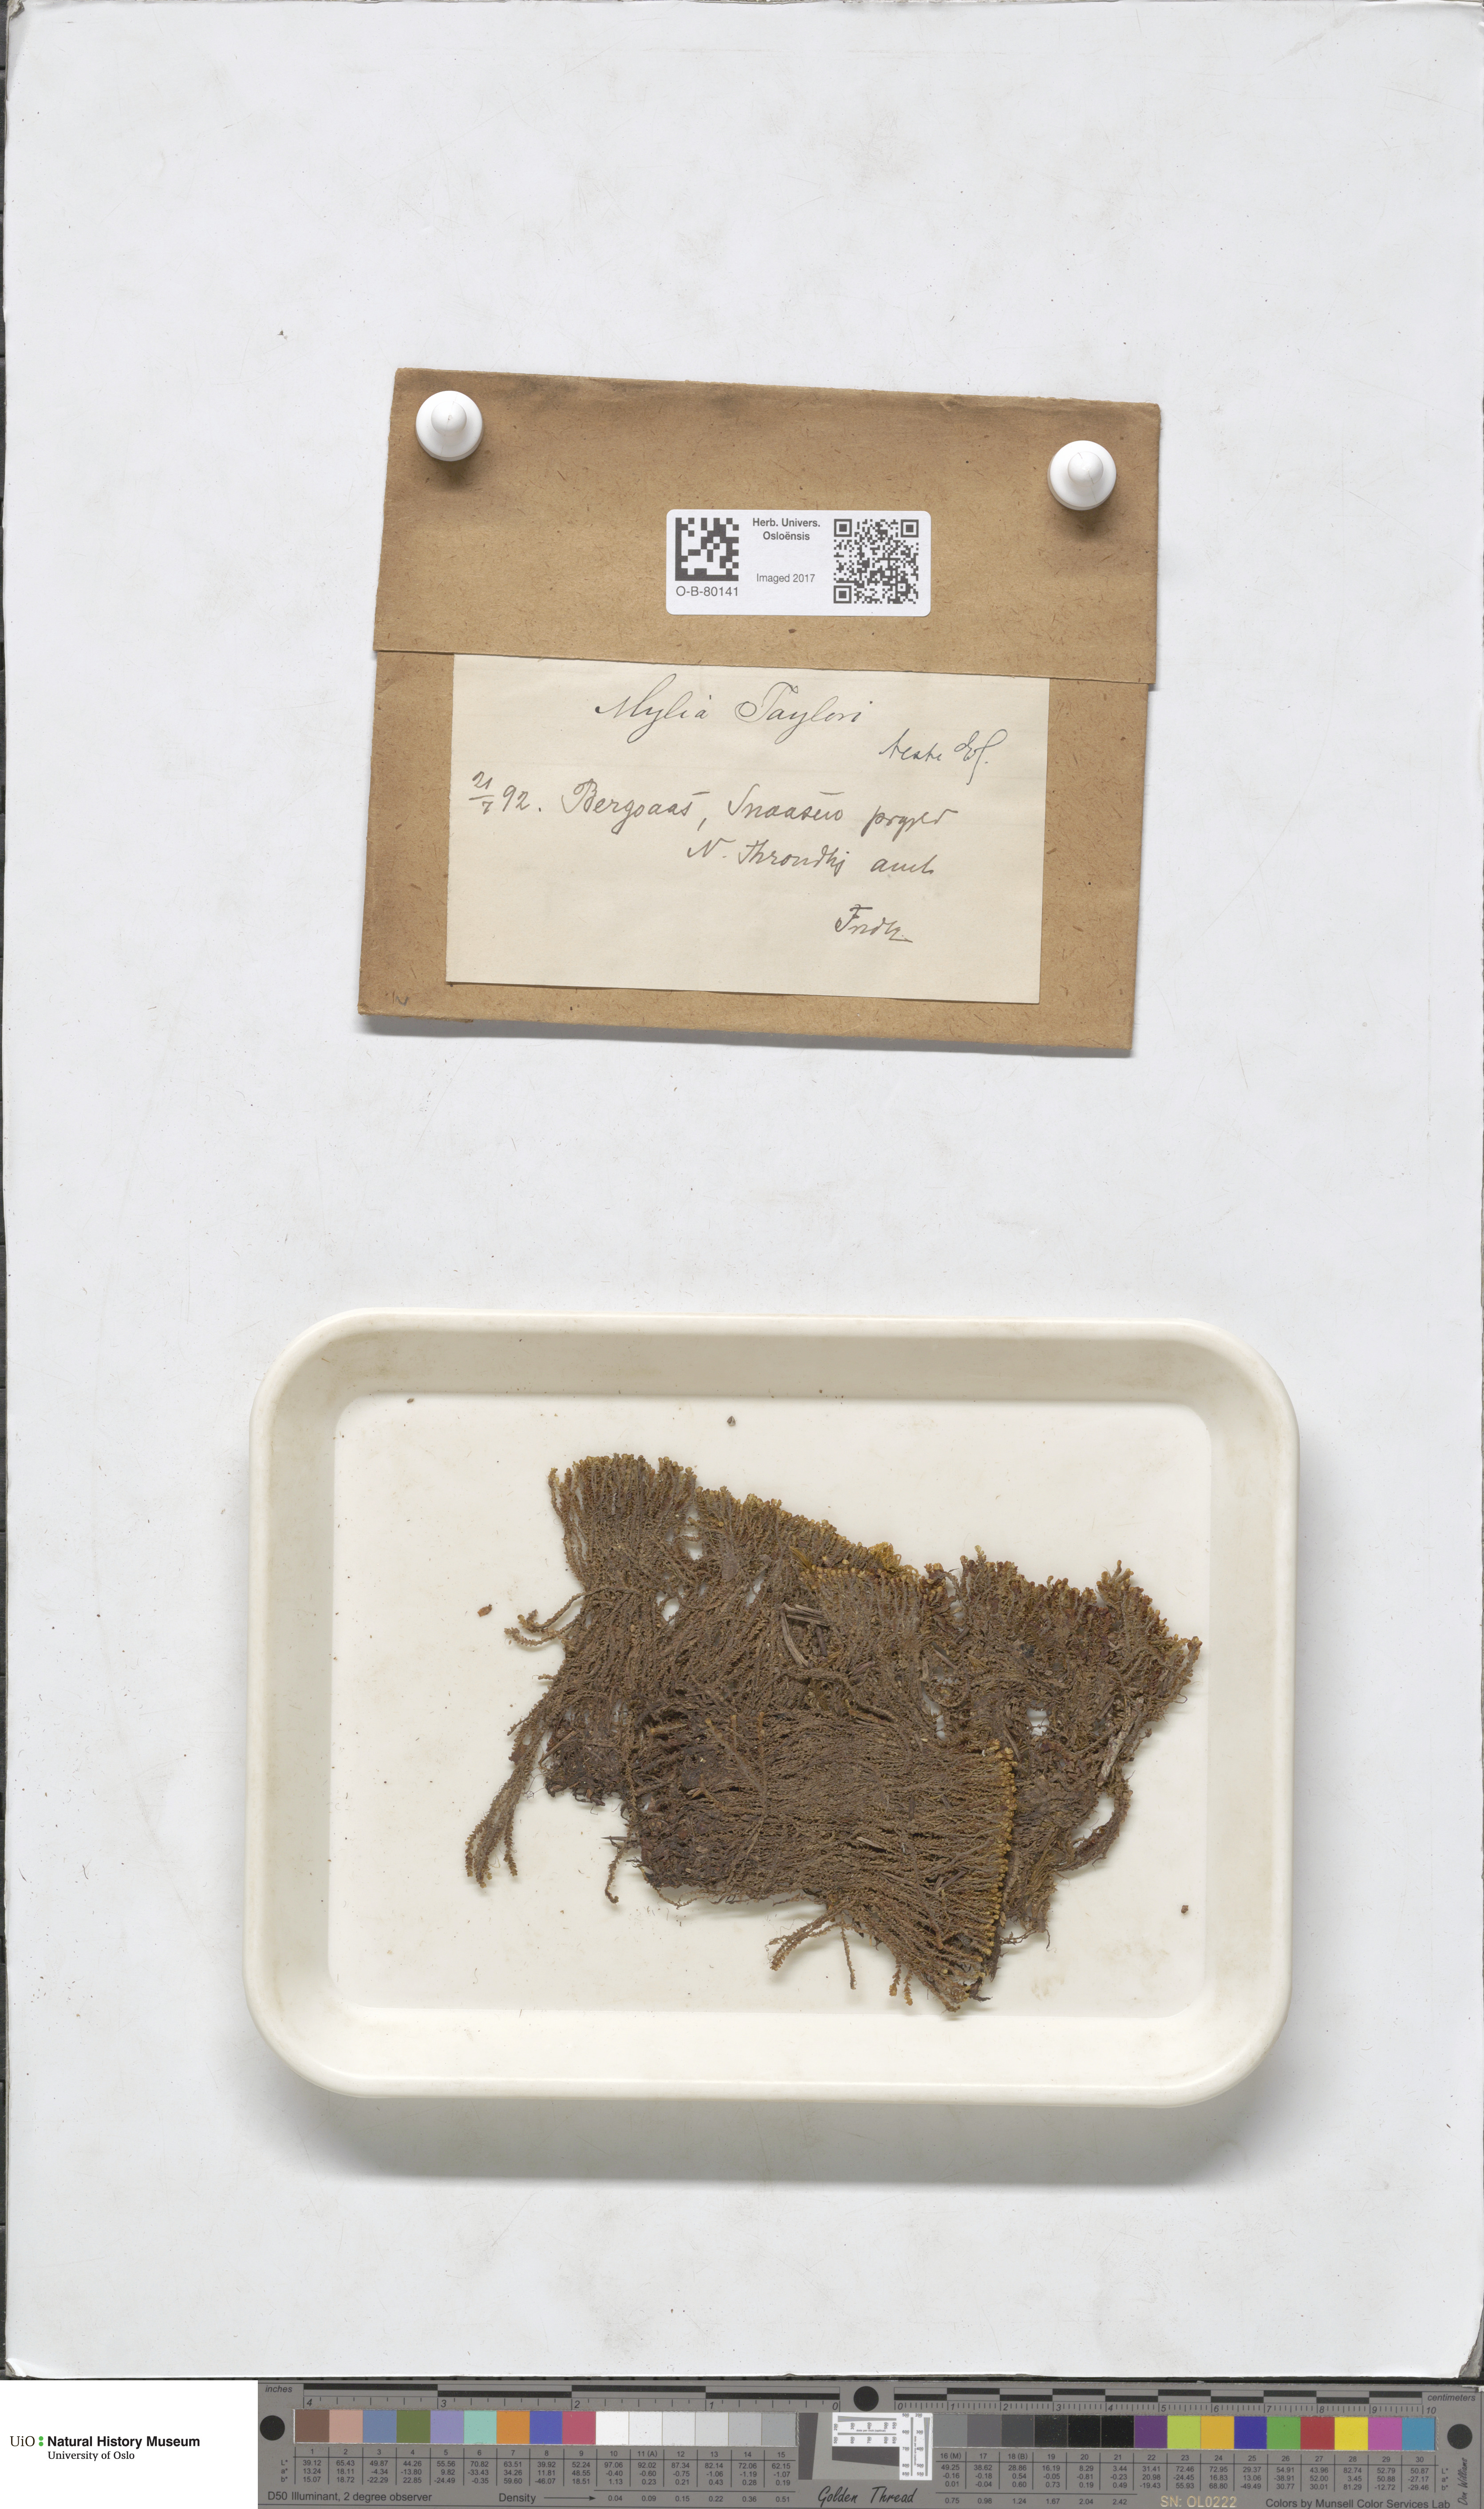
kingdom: Plantae
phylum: Marchantiophyta
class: Jungermanniopsida
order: Jungermanniales
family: Myliaceae
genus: Mylia
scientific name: Mylia taylorii
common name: Taylor s flapwort
